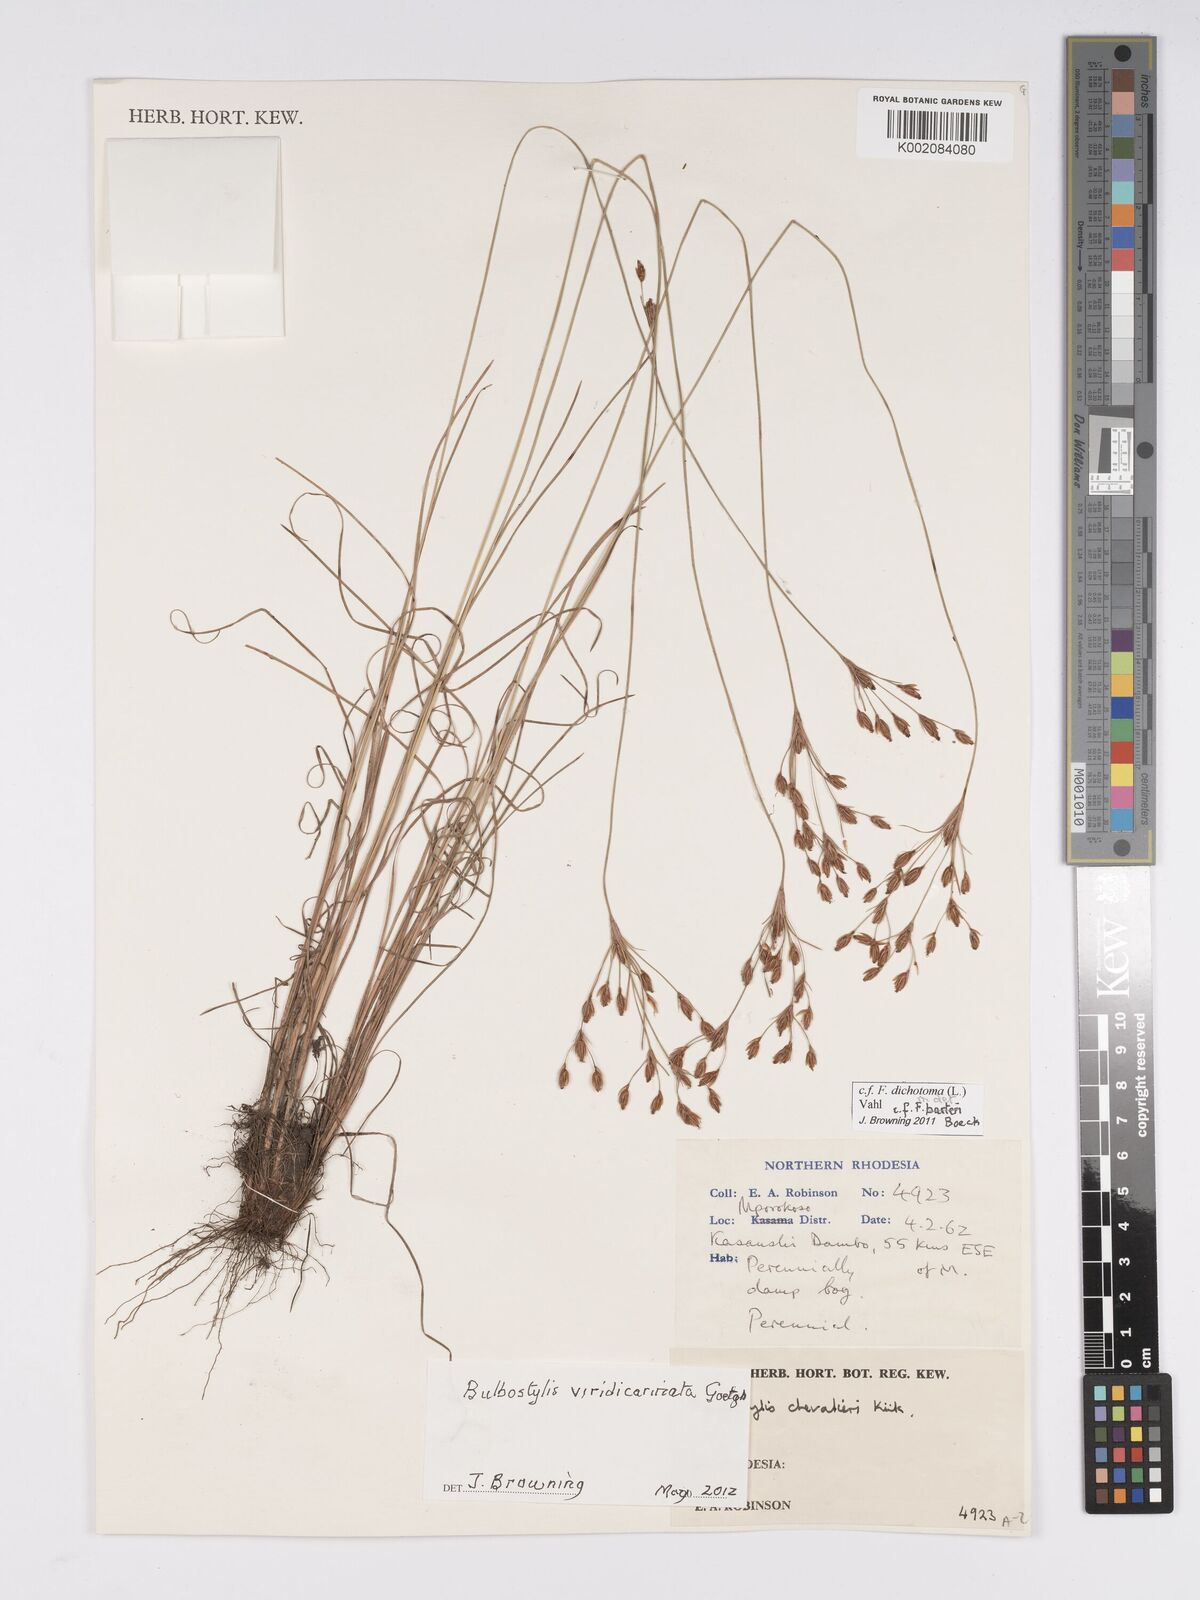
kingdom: Plantae
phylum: Tracheophyta
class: Liliopsida
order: Poales
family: Cyperaceae
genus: Bulbostylis
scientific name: Bulbostylis viridecarinata
